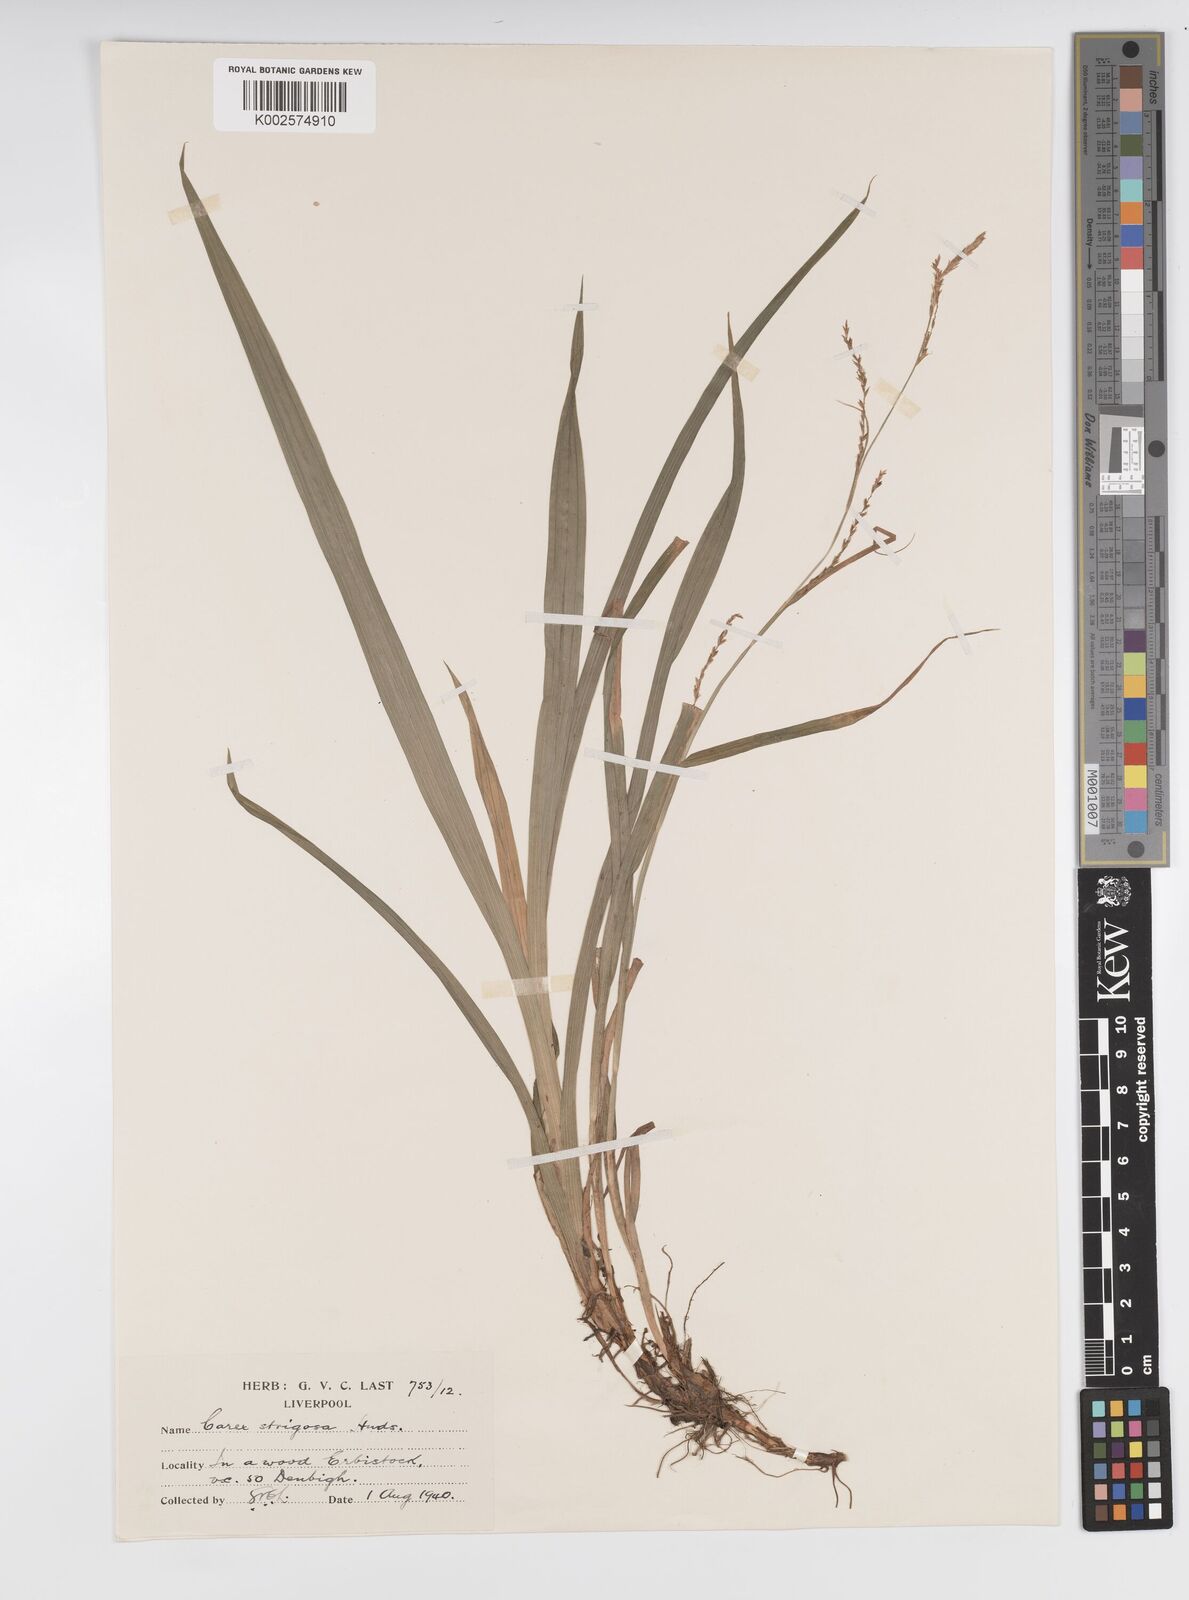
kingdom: Plantae
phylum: Tracheophyta
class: Liliopsida
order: Poales
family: Cyperaceae
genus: Carex
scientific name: Carex strigosa
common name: Thin-spiked wood-sedge
